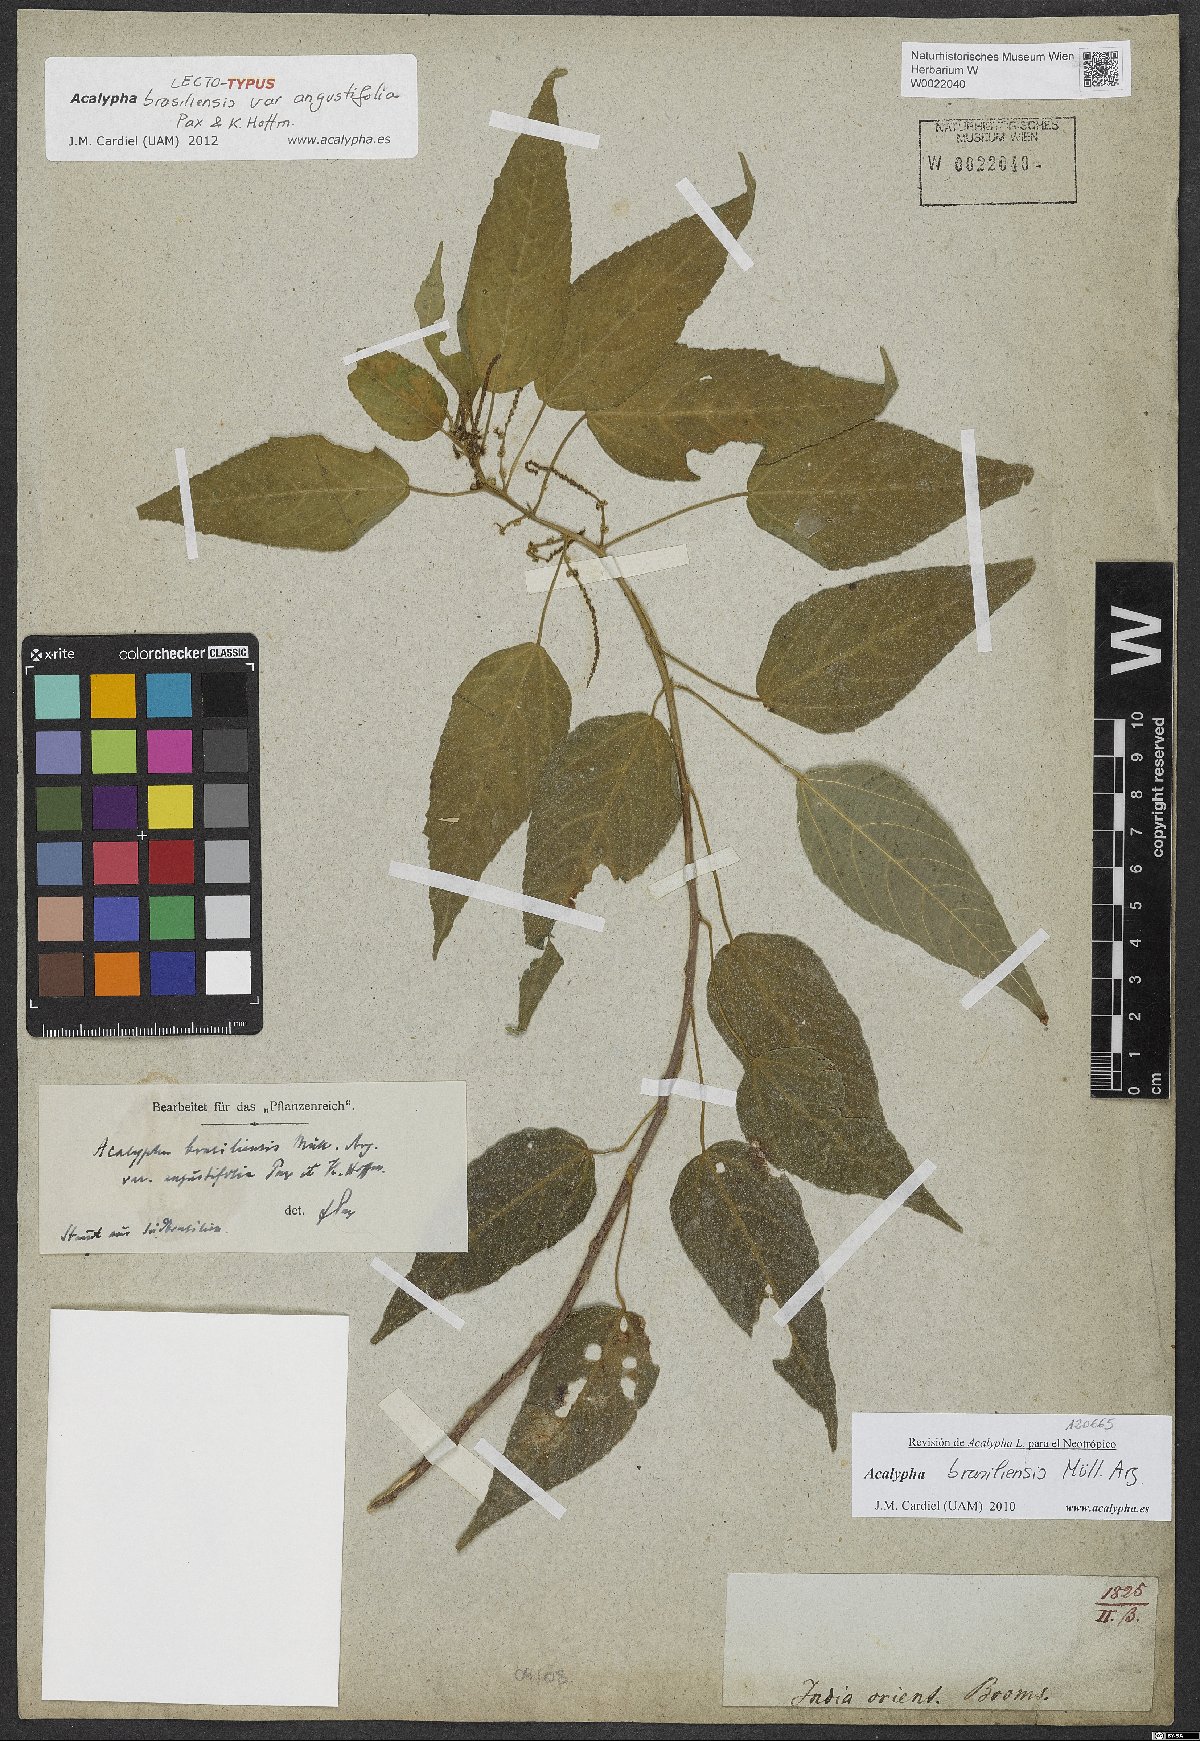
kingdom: Plantae
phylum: Tracheophyta
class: Magnoliopsida
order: Malpighiales
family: Euphorbiaceae
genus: Acalypha
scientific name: Acalypha brasiliensis
